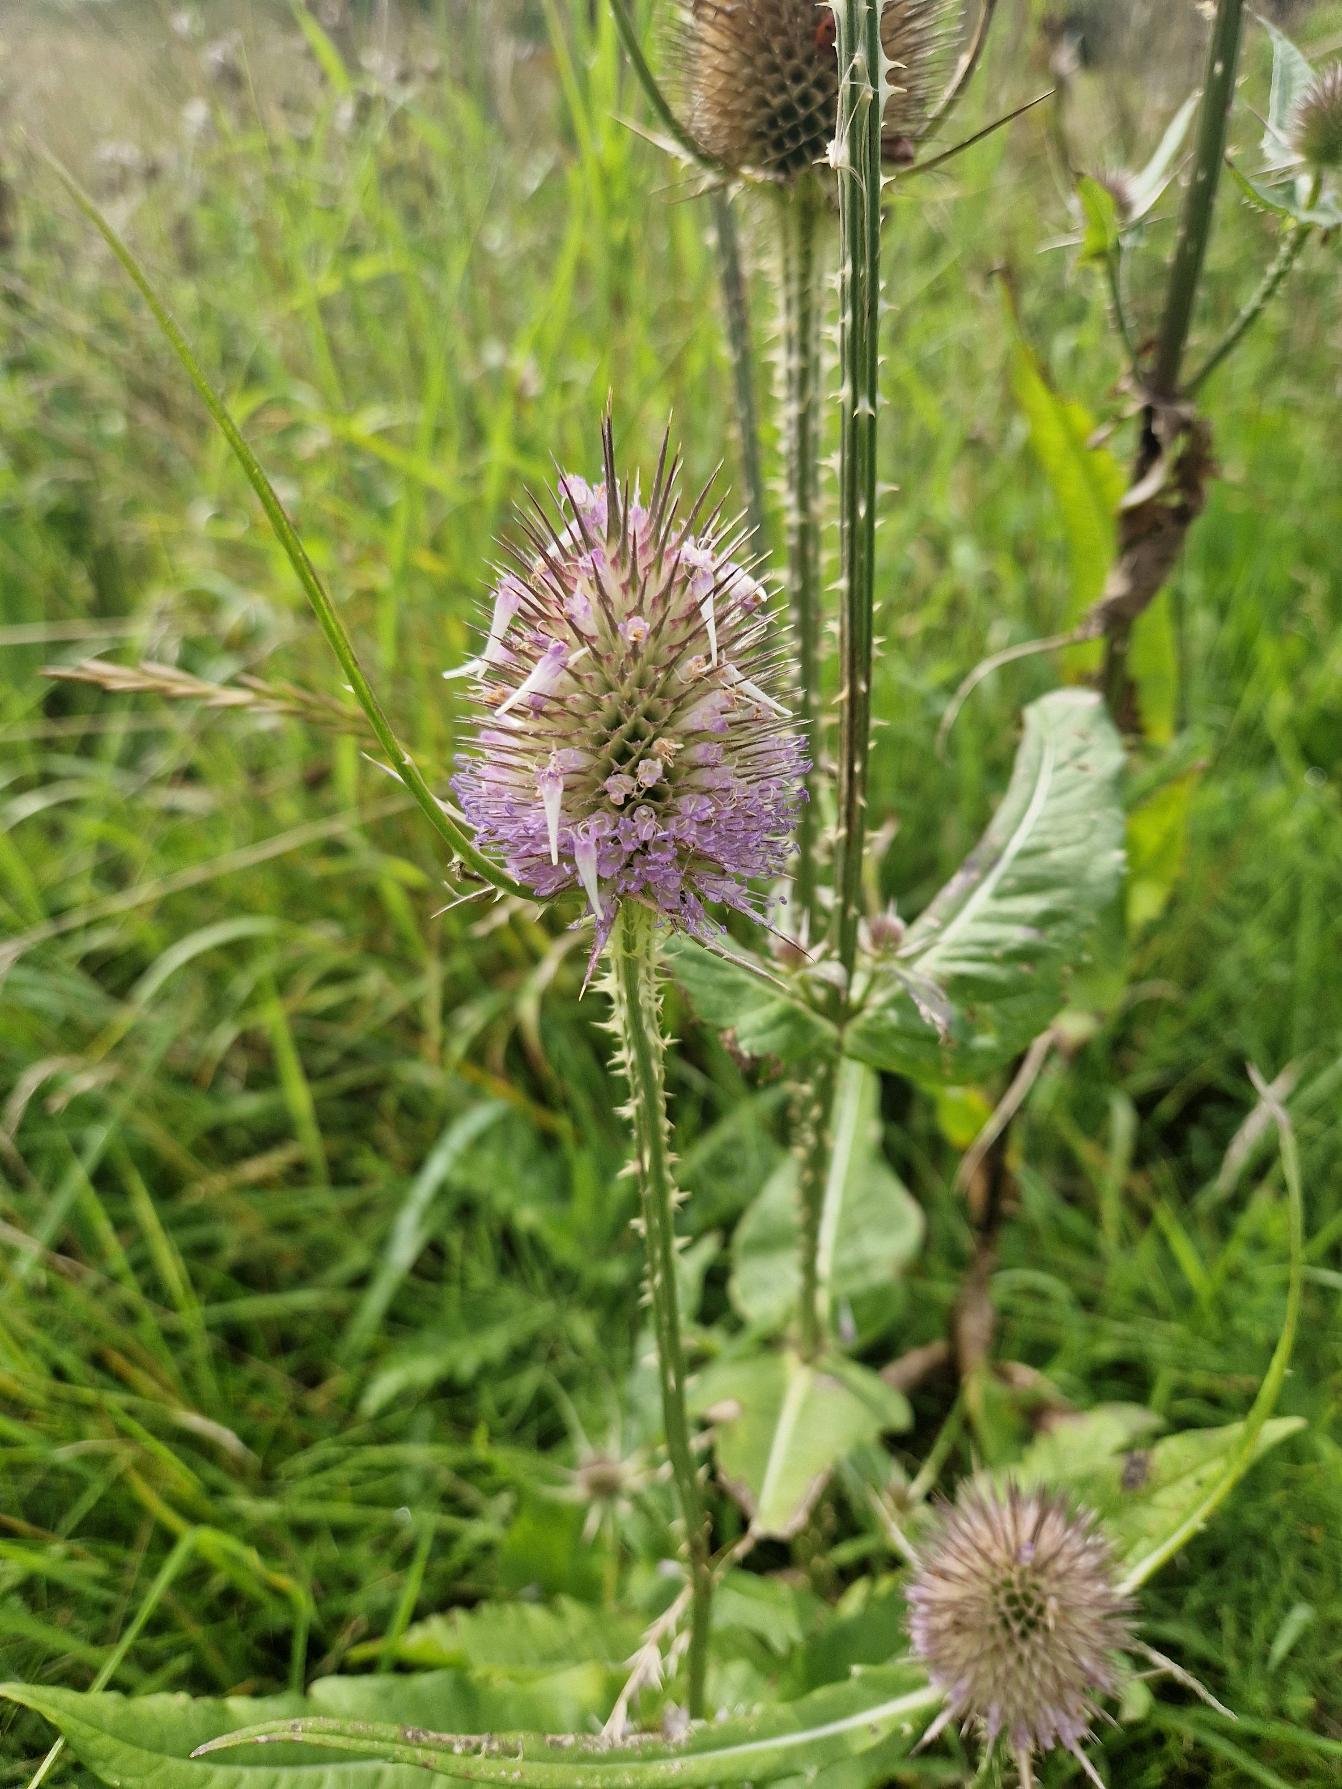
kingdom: Plantae
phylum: Tracheophyta
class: Magnoliopsida
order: Dipsacales
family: Caprifoliaceae
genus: Dipsacus
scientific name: Dipsacus fullonum
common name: Gærde-kartebolle
